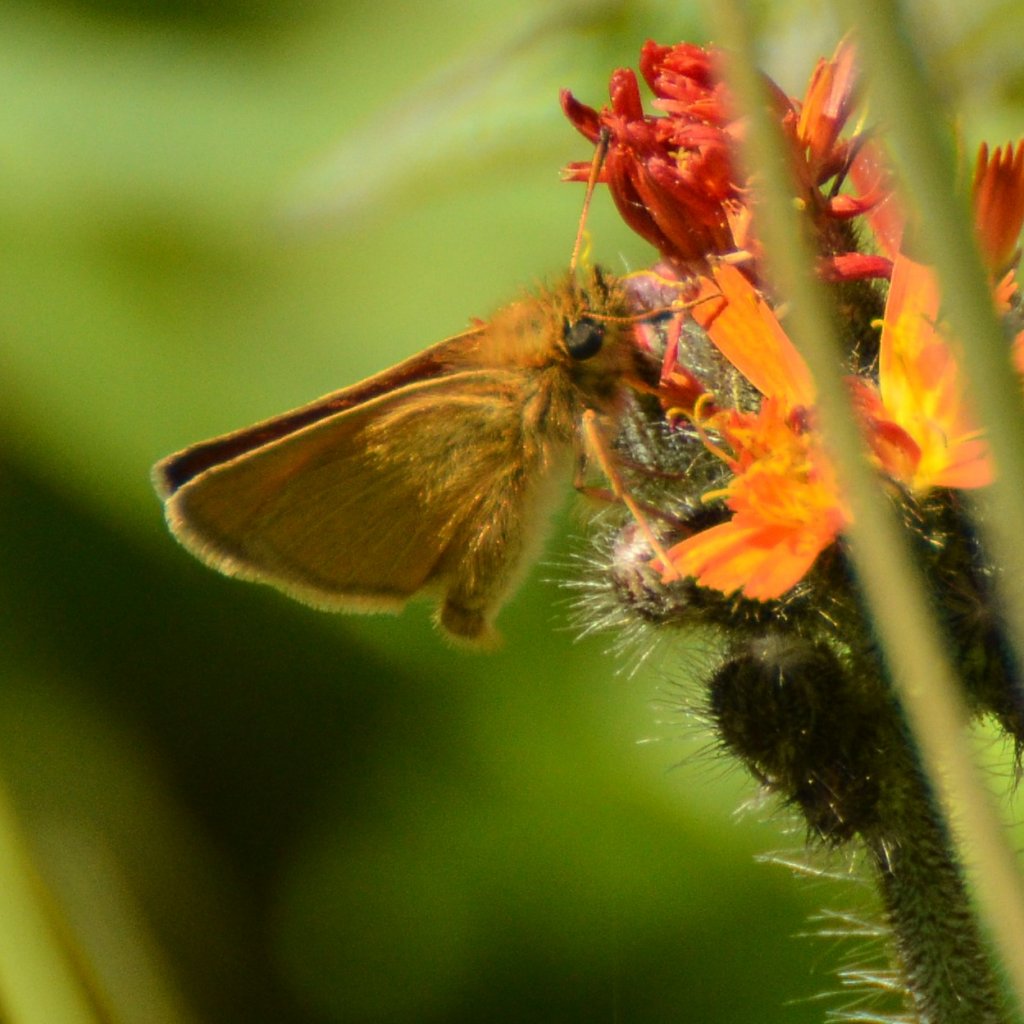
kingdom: Animalia
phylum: Arthropoda
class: Insecta
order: Lepidoptera
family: Hesperiidae
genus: Thymelicus
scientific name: Thymelicus lineola
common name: European Skipper
